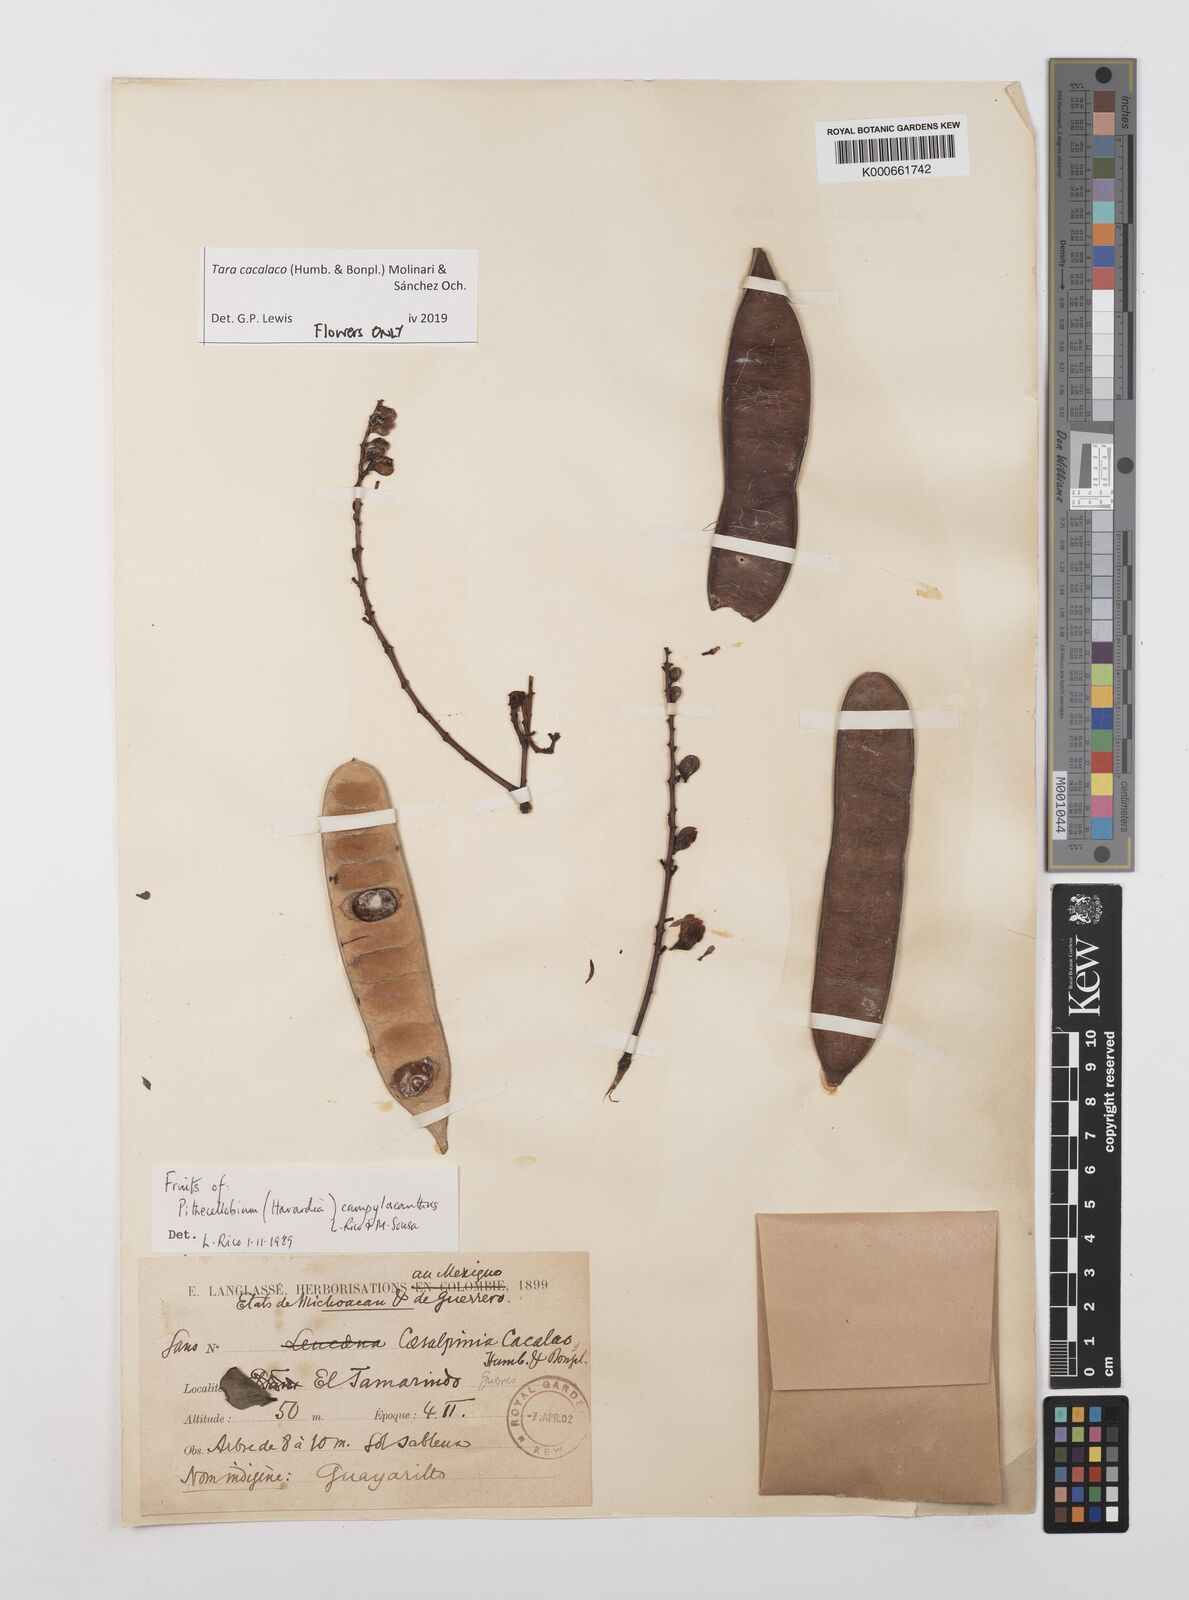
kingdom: Plantae
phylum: Tracheophyta
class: Magnoliopsida
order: Fabales
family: Fabaceae
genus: Tara
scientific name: Tara cacalaco
